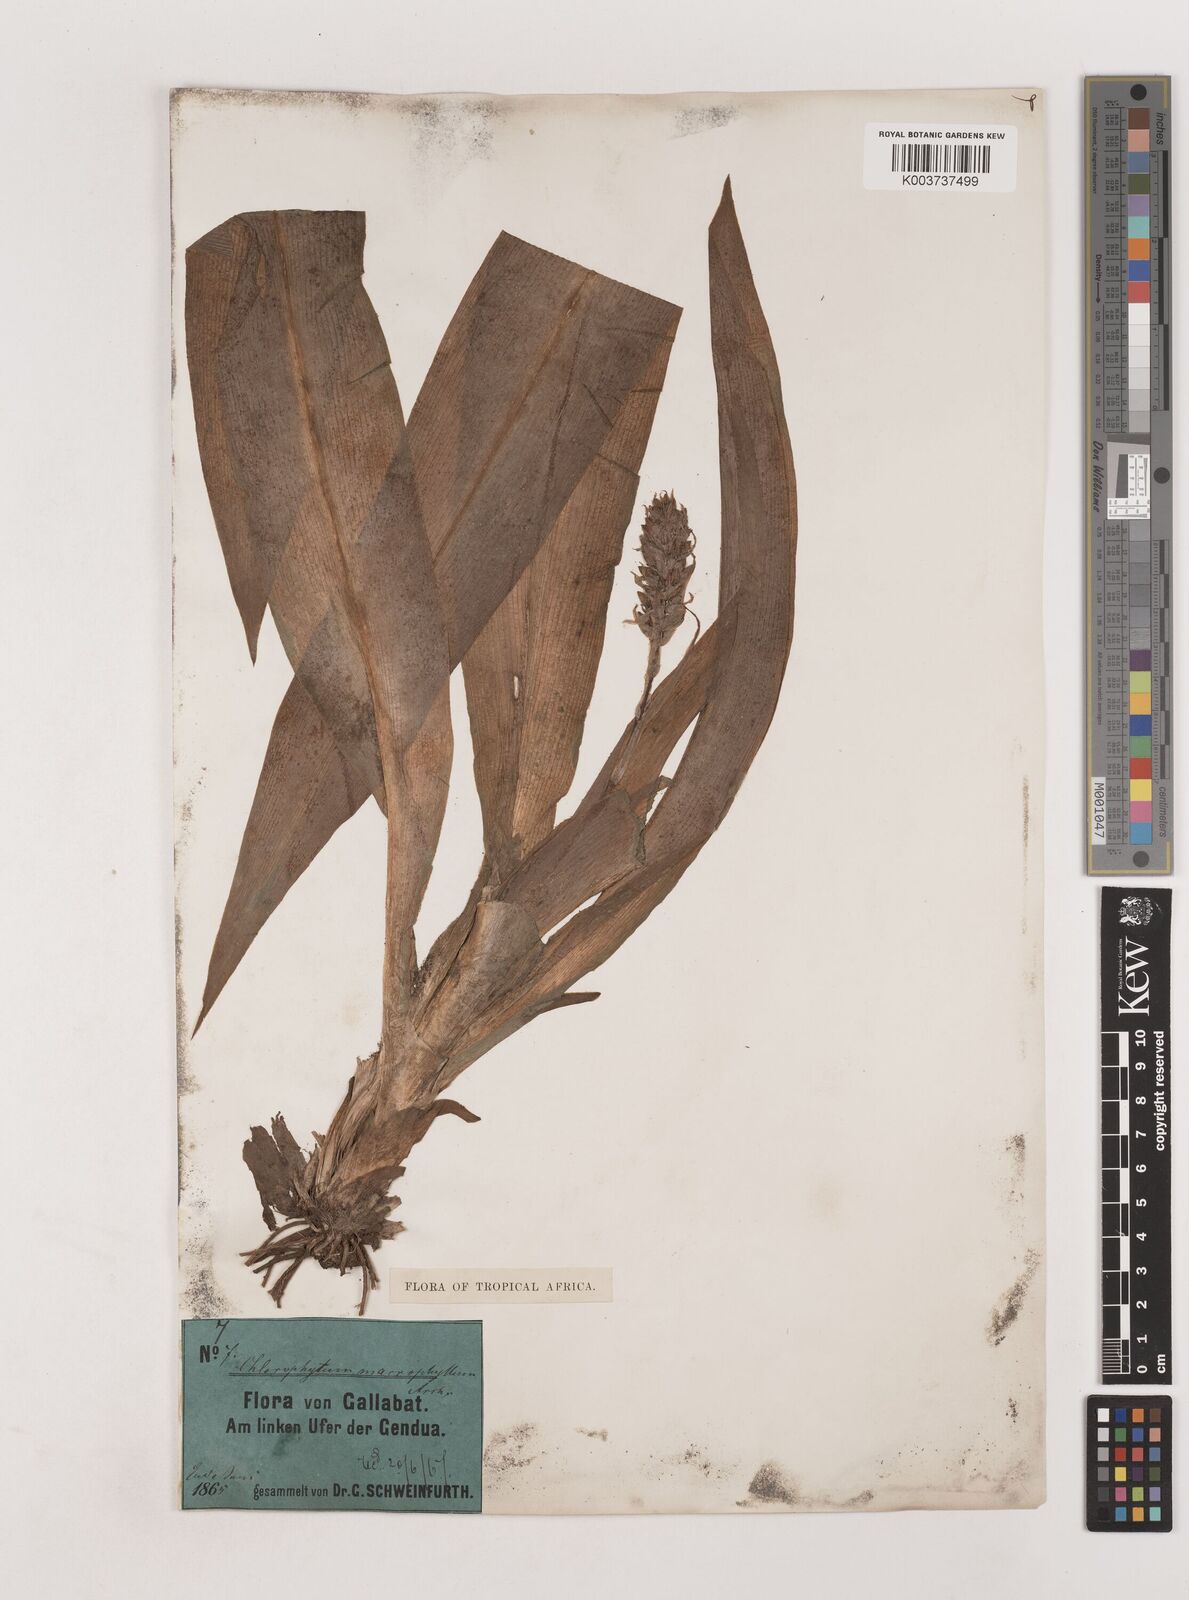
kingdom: Plantae
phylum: Tracheophyta
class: Liliopsida
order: Asparagales
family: Asparagaceae
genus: Chlorophytum
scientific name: Chlorophytum macrophyllum
